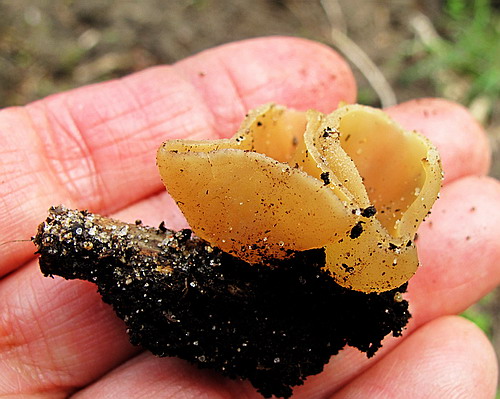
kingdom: Fungi
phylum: Ascomycota
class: Pezizomycetes
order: Pezizales
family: Pezizaceae
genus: Peziza
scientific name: Peziza varia
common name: Ved-bægersvamp
